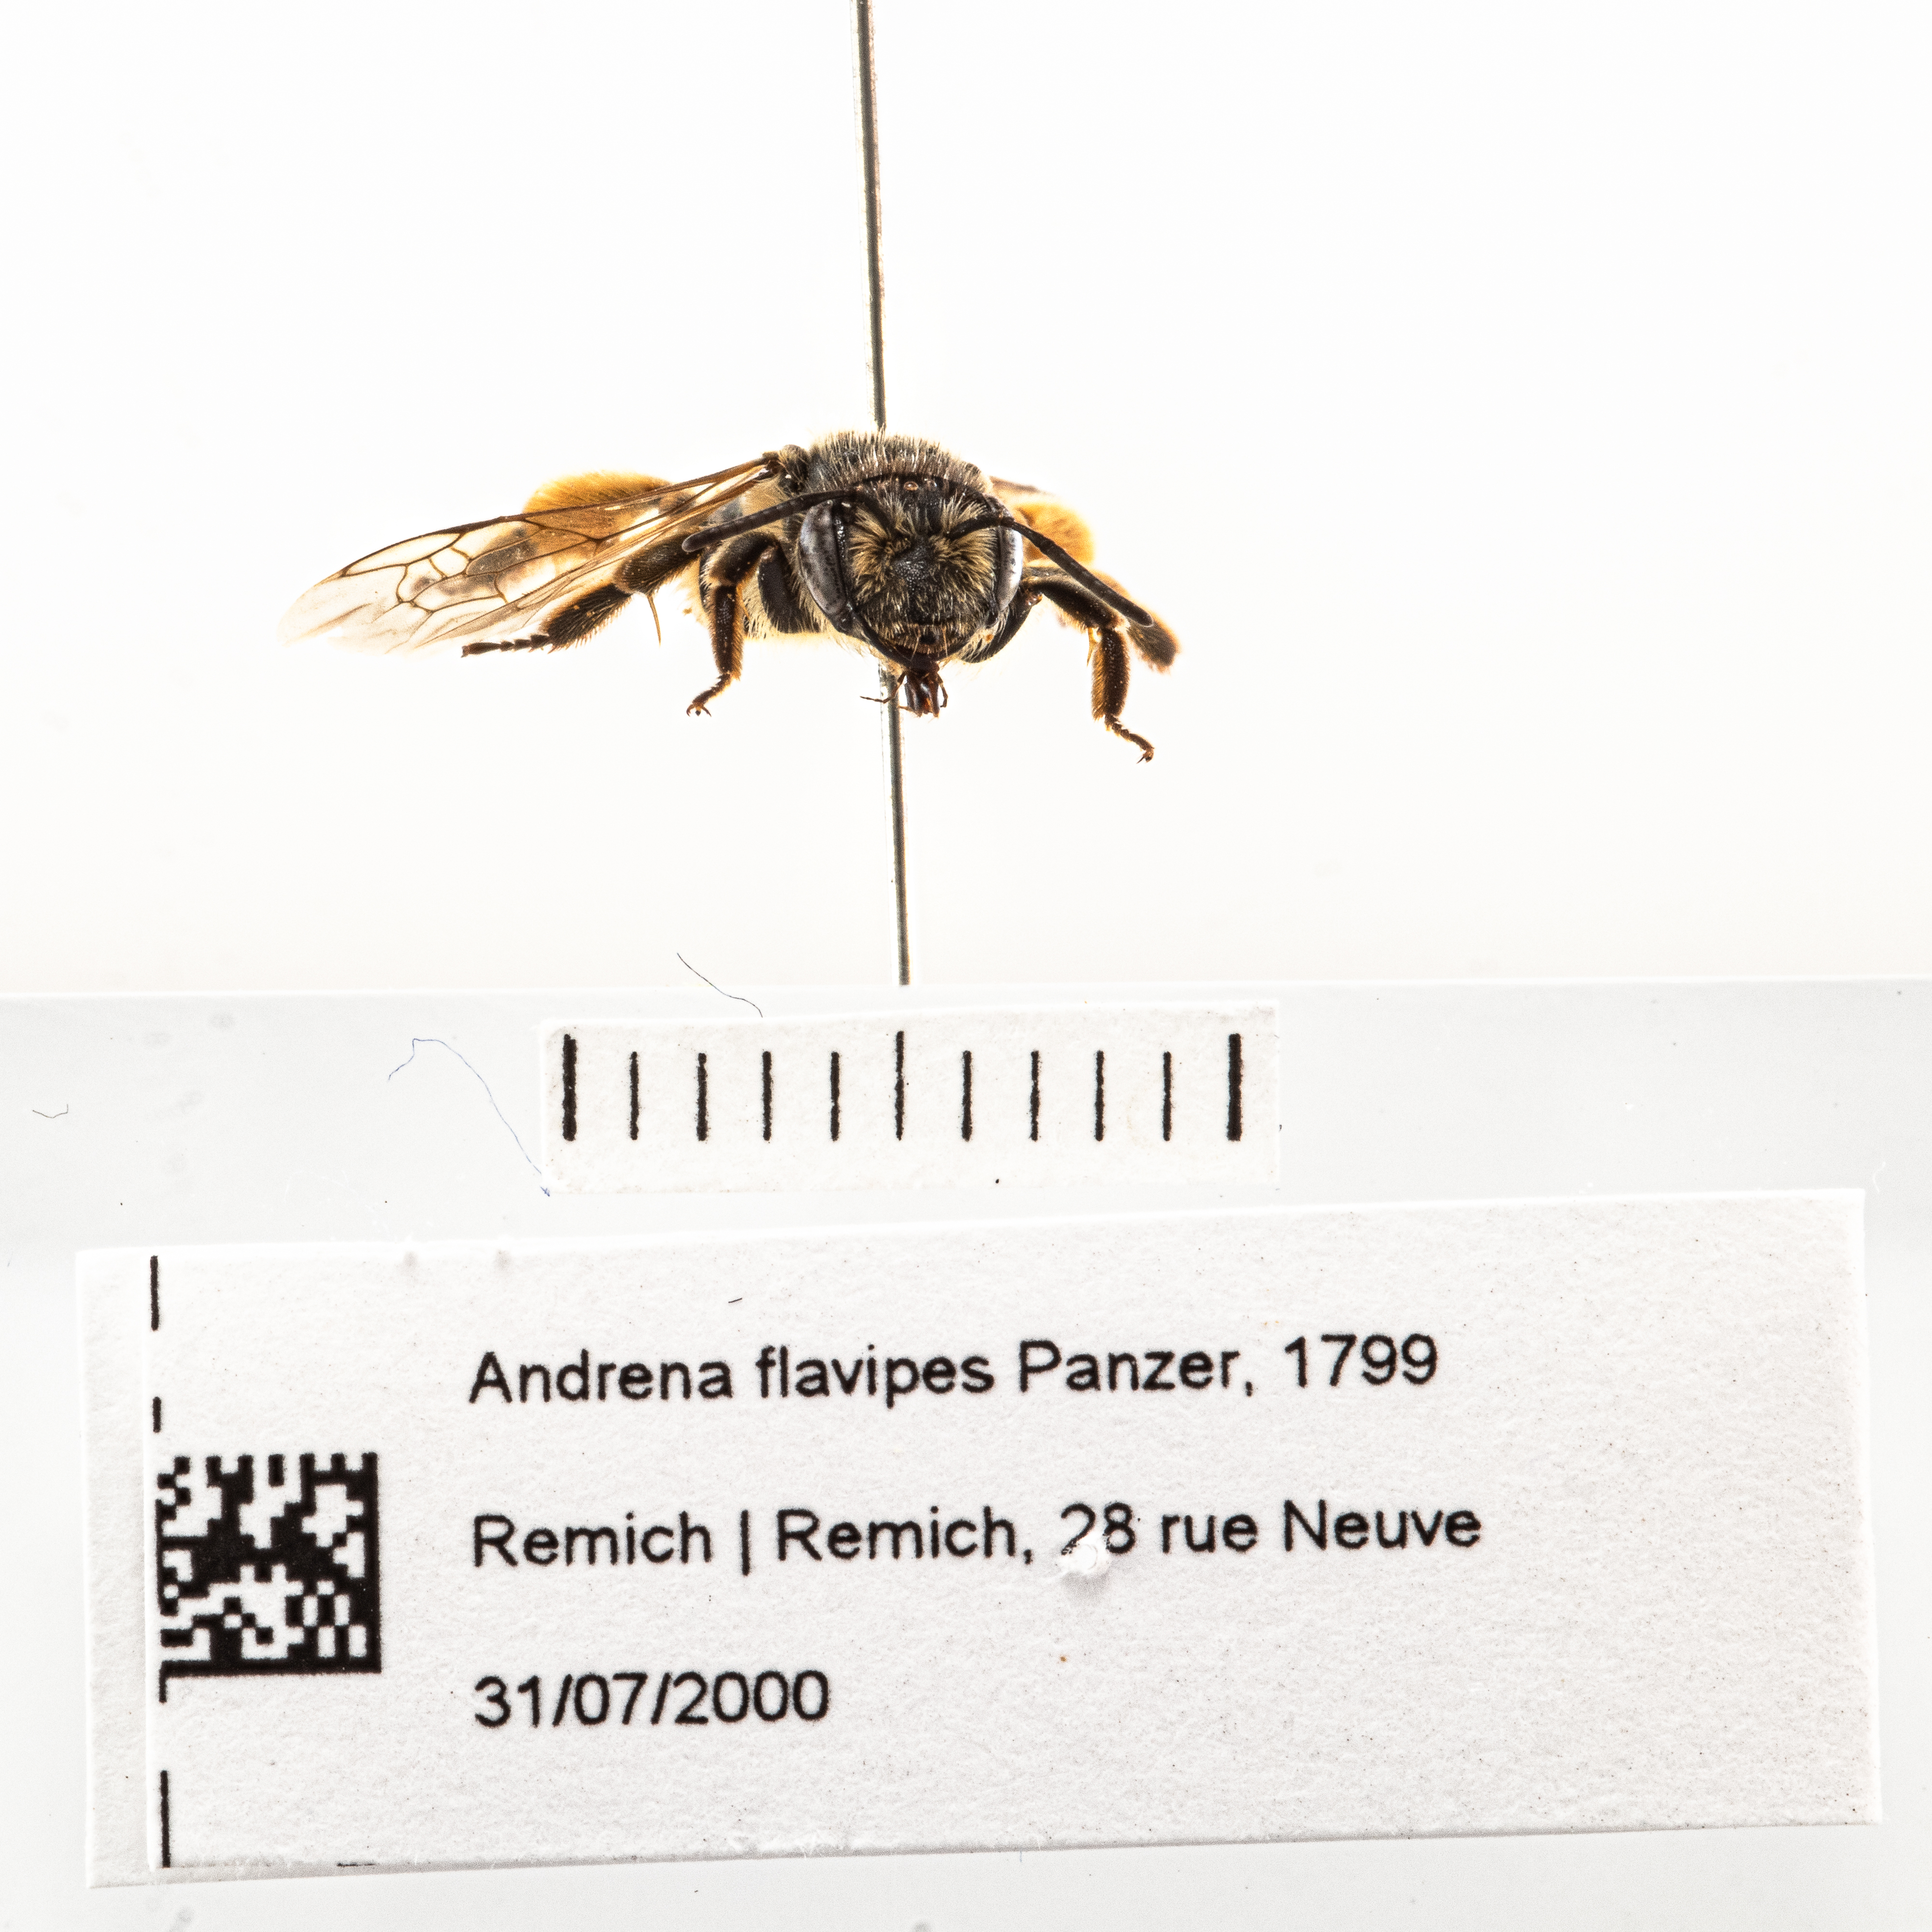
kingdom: Animalia
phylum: Arthropoda
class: Insecta
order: Hymenoptera
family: Andrenidae
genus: Andrena
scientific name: Andrena flavipes
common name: Yellow-legged mining bee
